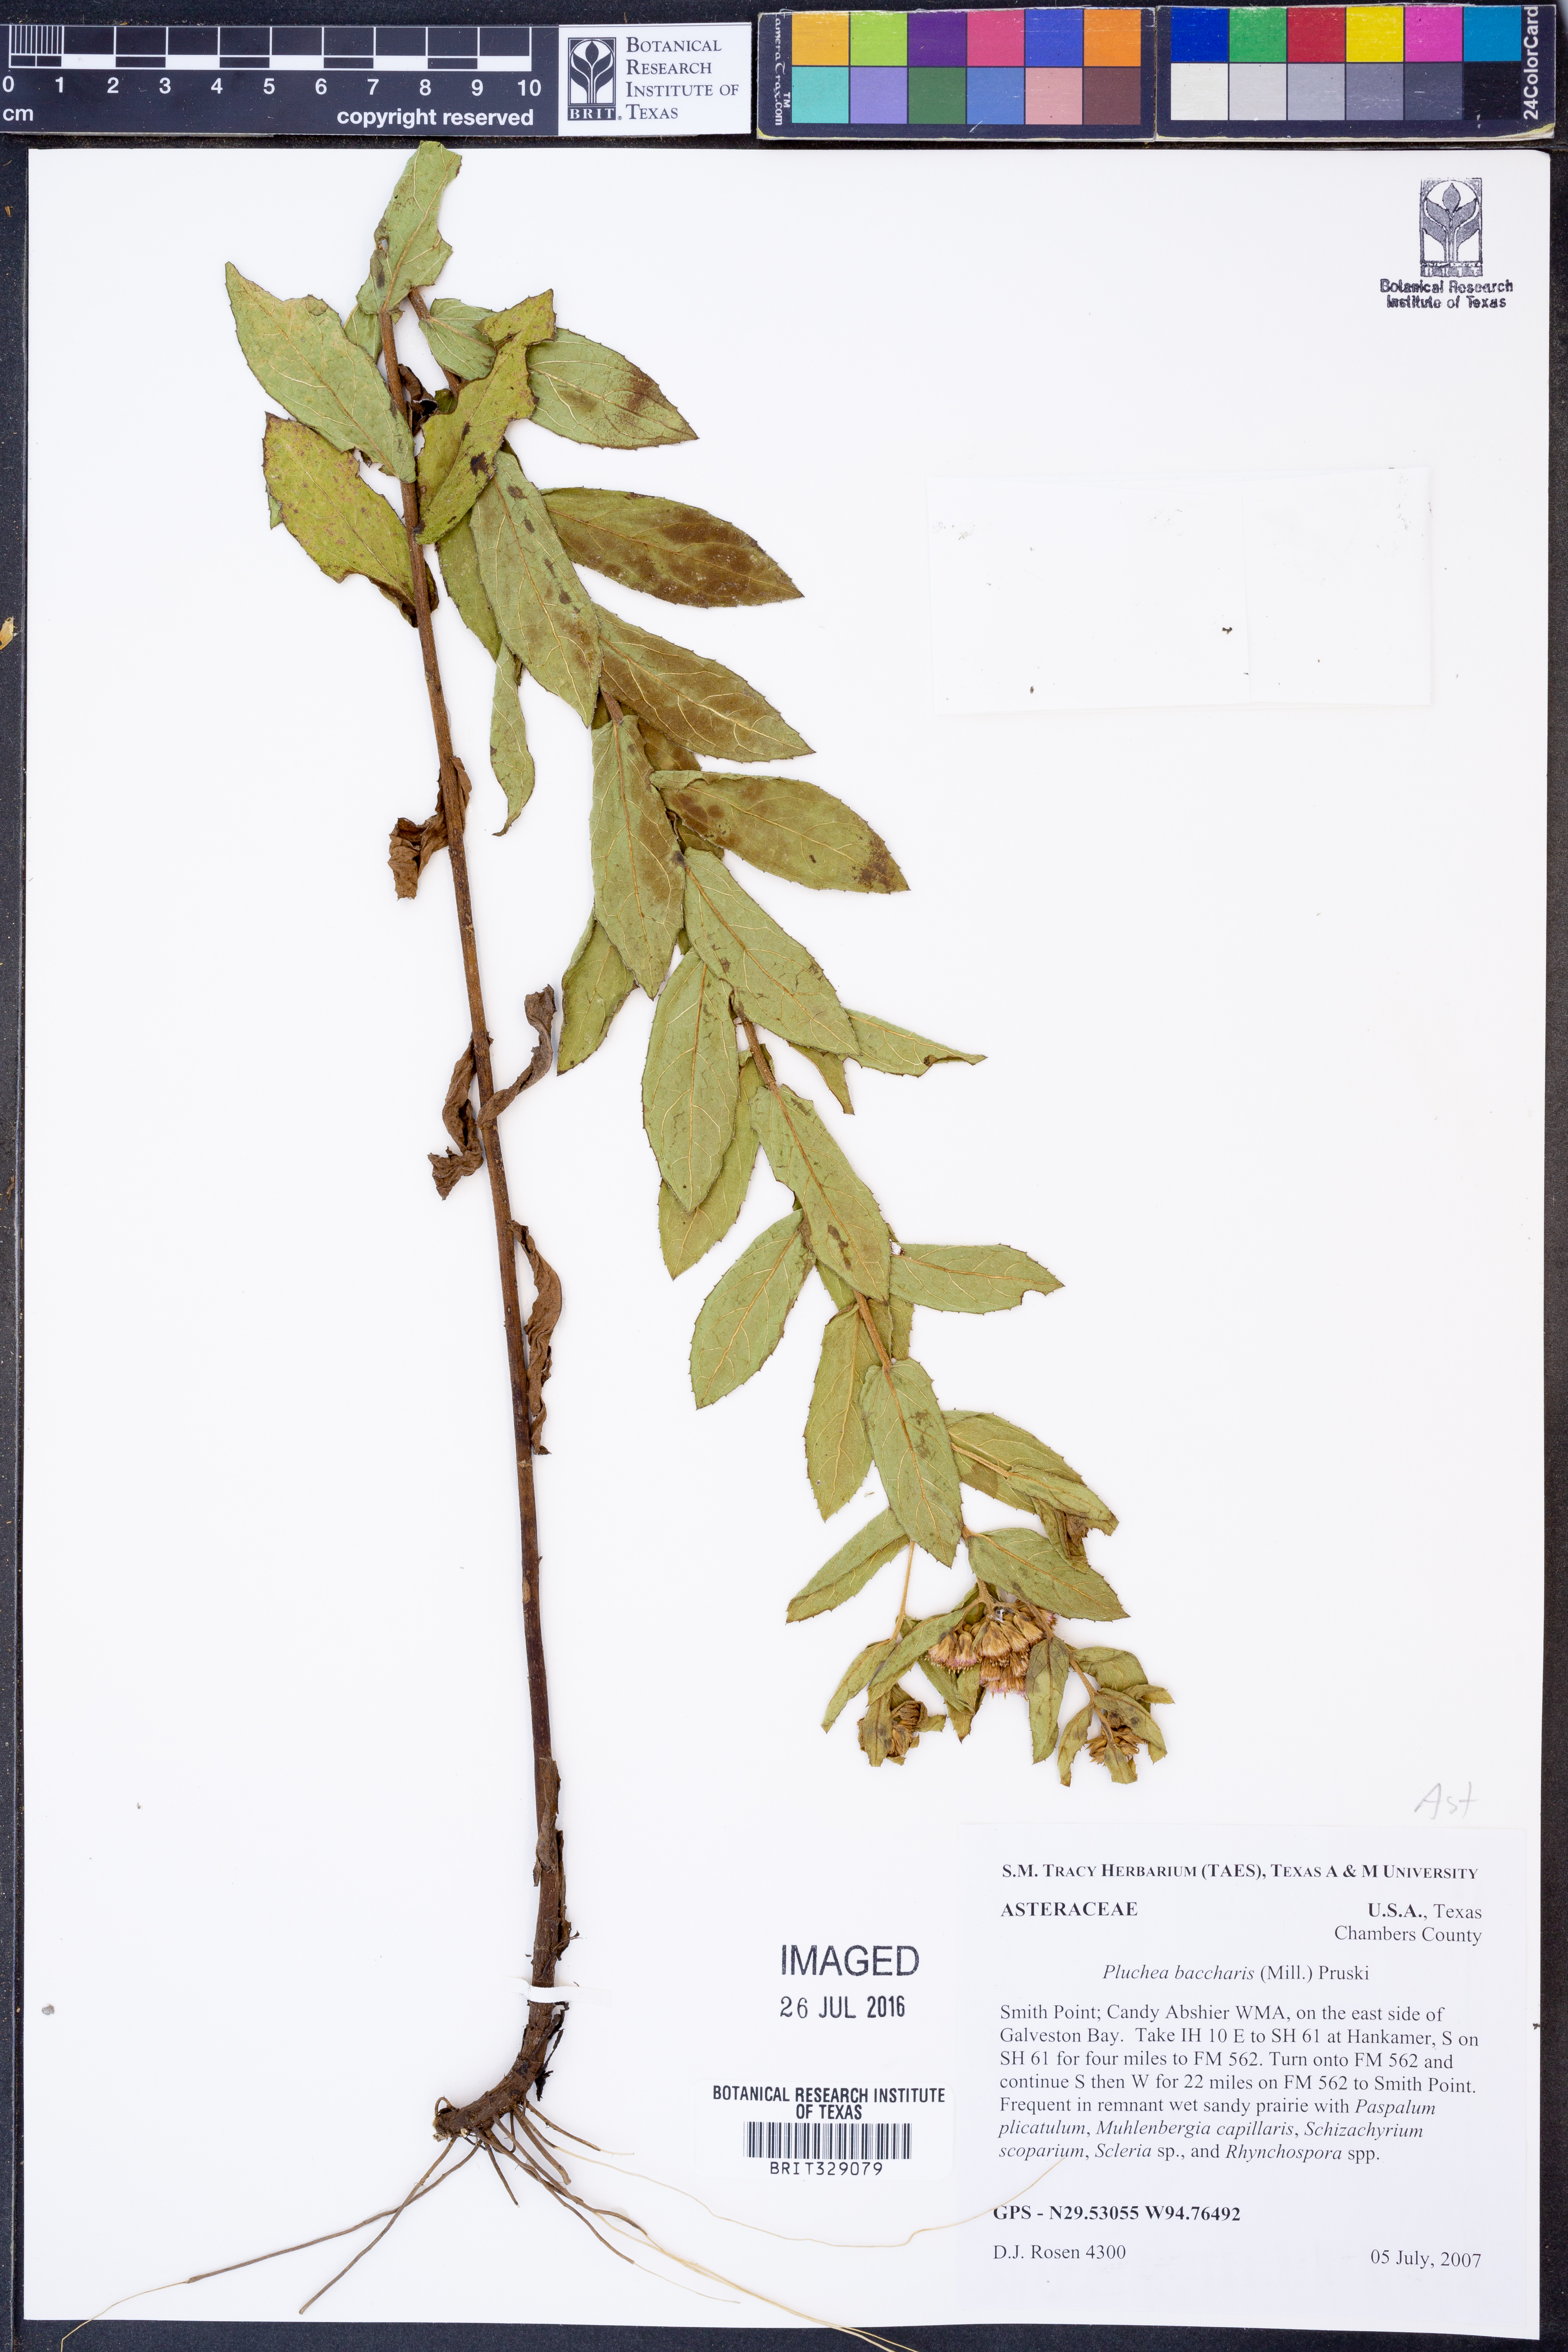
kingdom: Plantae
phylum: Tracheophyta
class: Magnoliopsida
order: Asterales
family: Asteraceae
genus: Pluchea
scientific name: Pluchea foetida
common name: Stinking camphorweed
